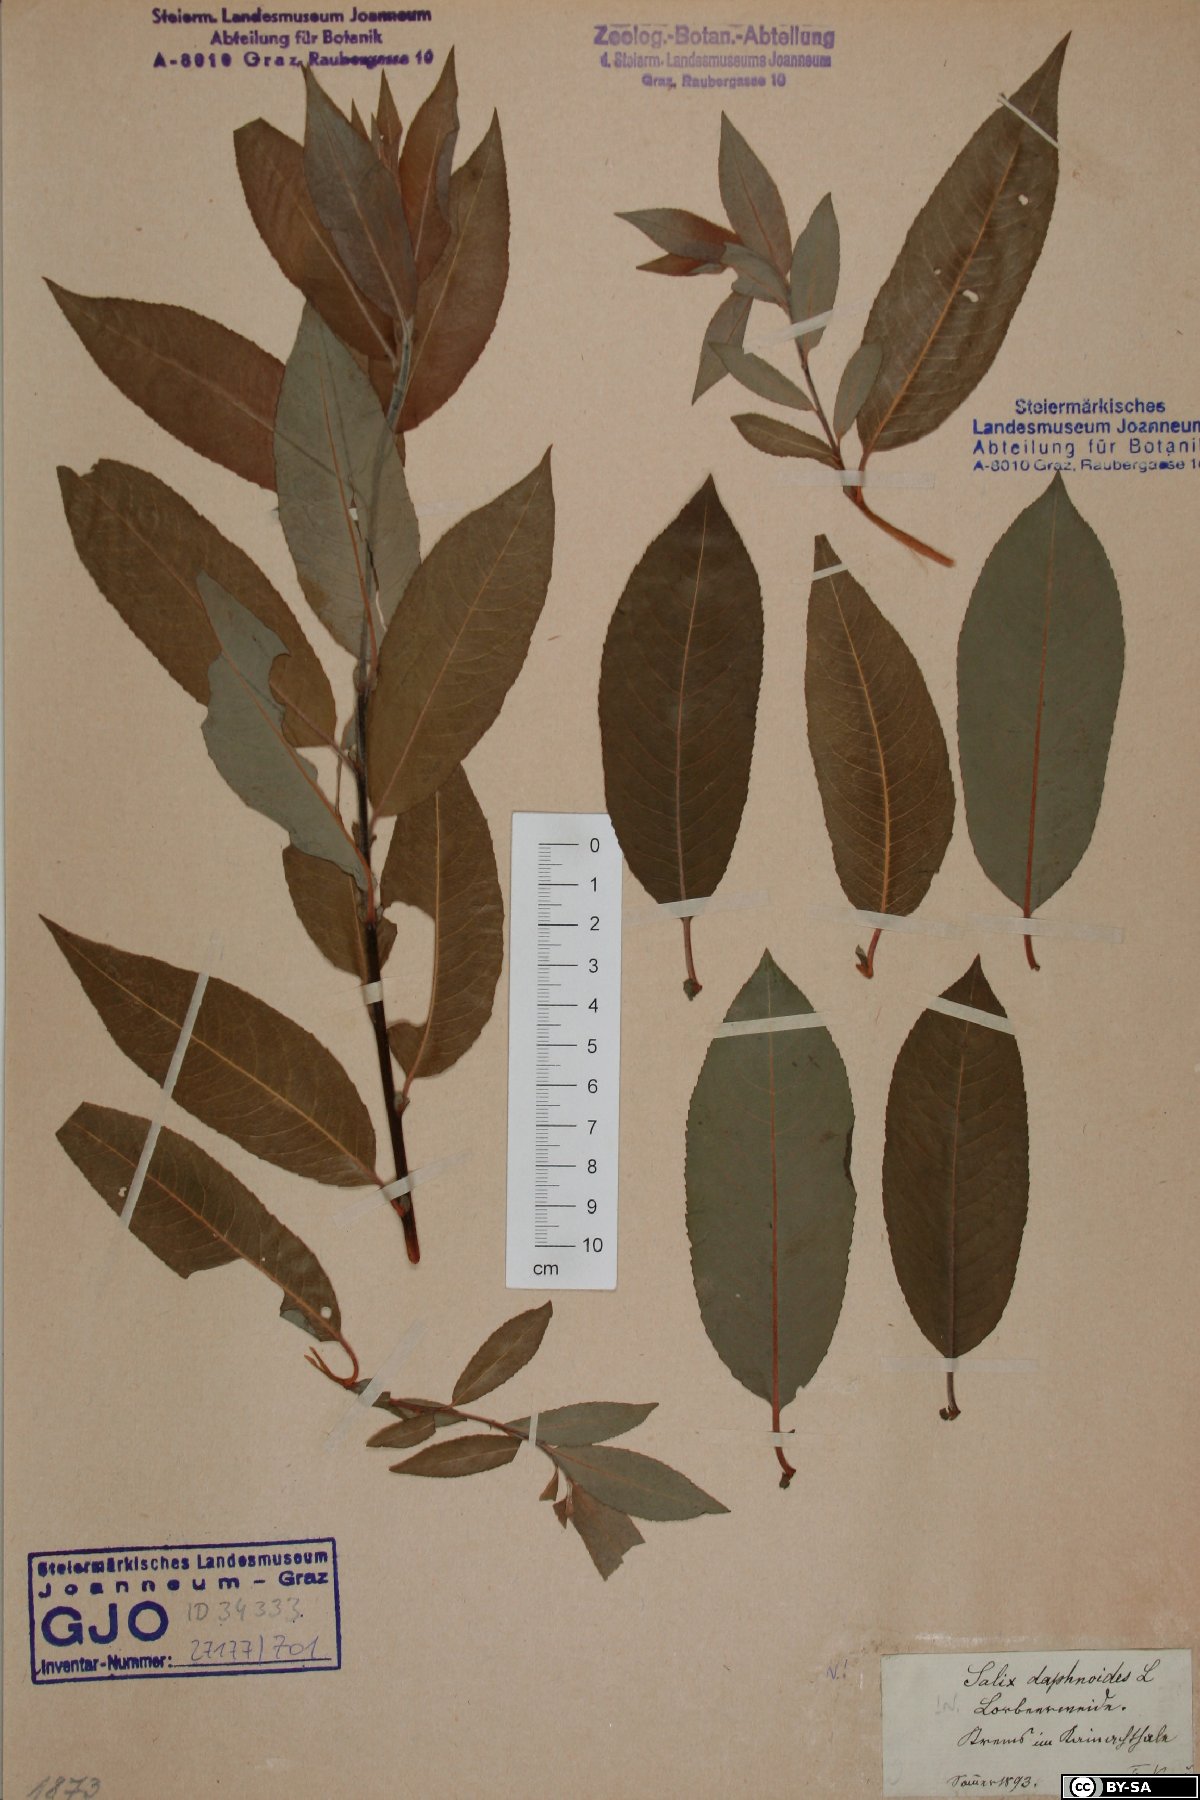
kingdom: Plantae
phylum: Tracheophyta
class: Magnoliopsida
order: Malpighiales
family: Salicaceae
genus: Salix
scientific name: Salix daphnoides
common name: European violet-willow
